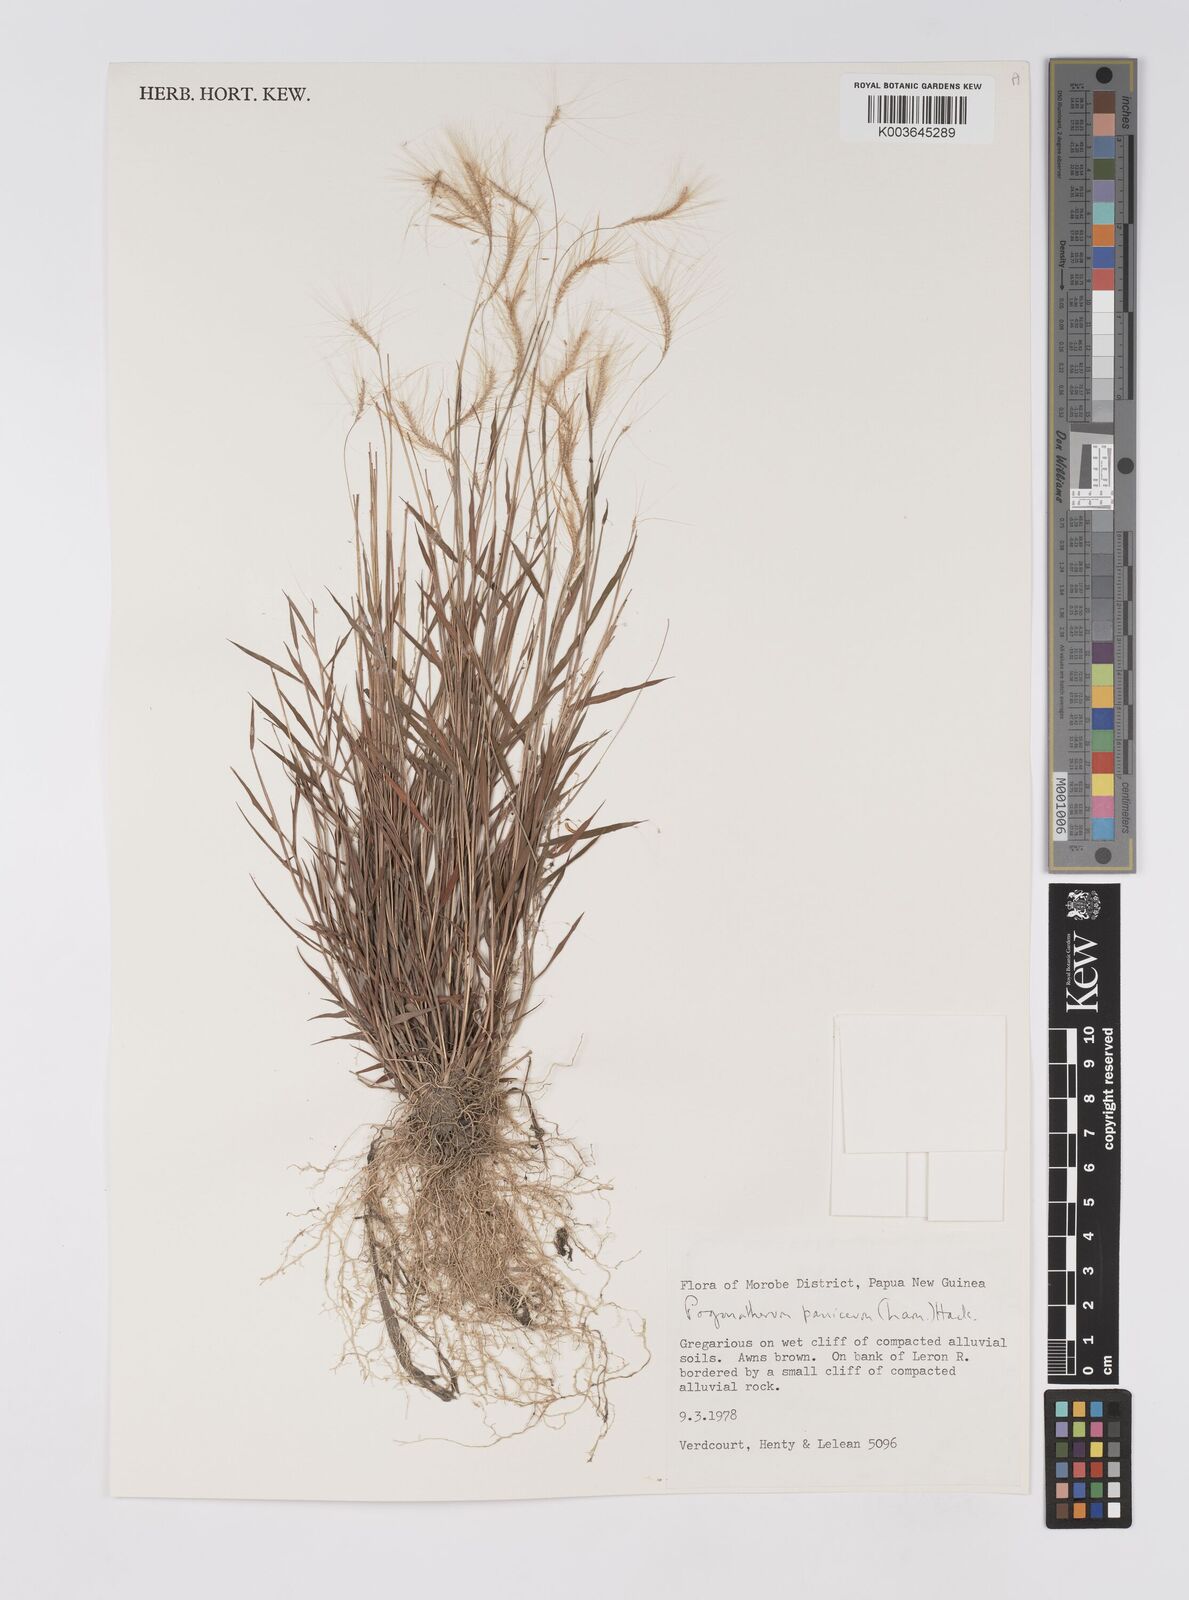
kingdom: Plantae
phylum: Tracheophyta
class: Liliopsida
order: Poales
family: Poaceae
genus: Pogonatherum
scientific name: Pogonatherum paniceum
